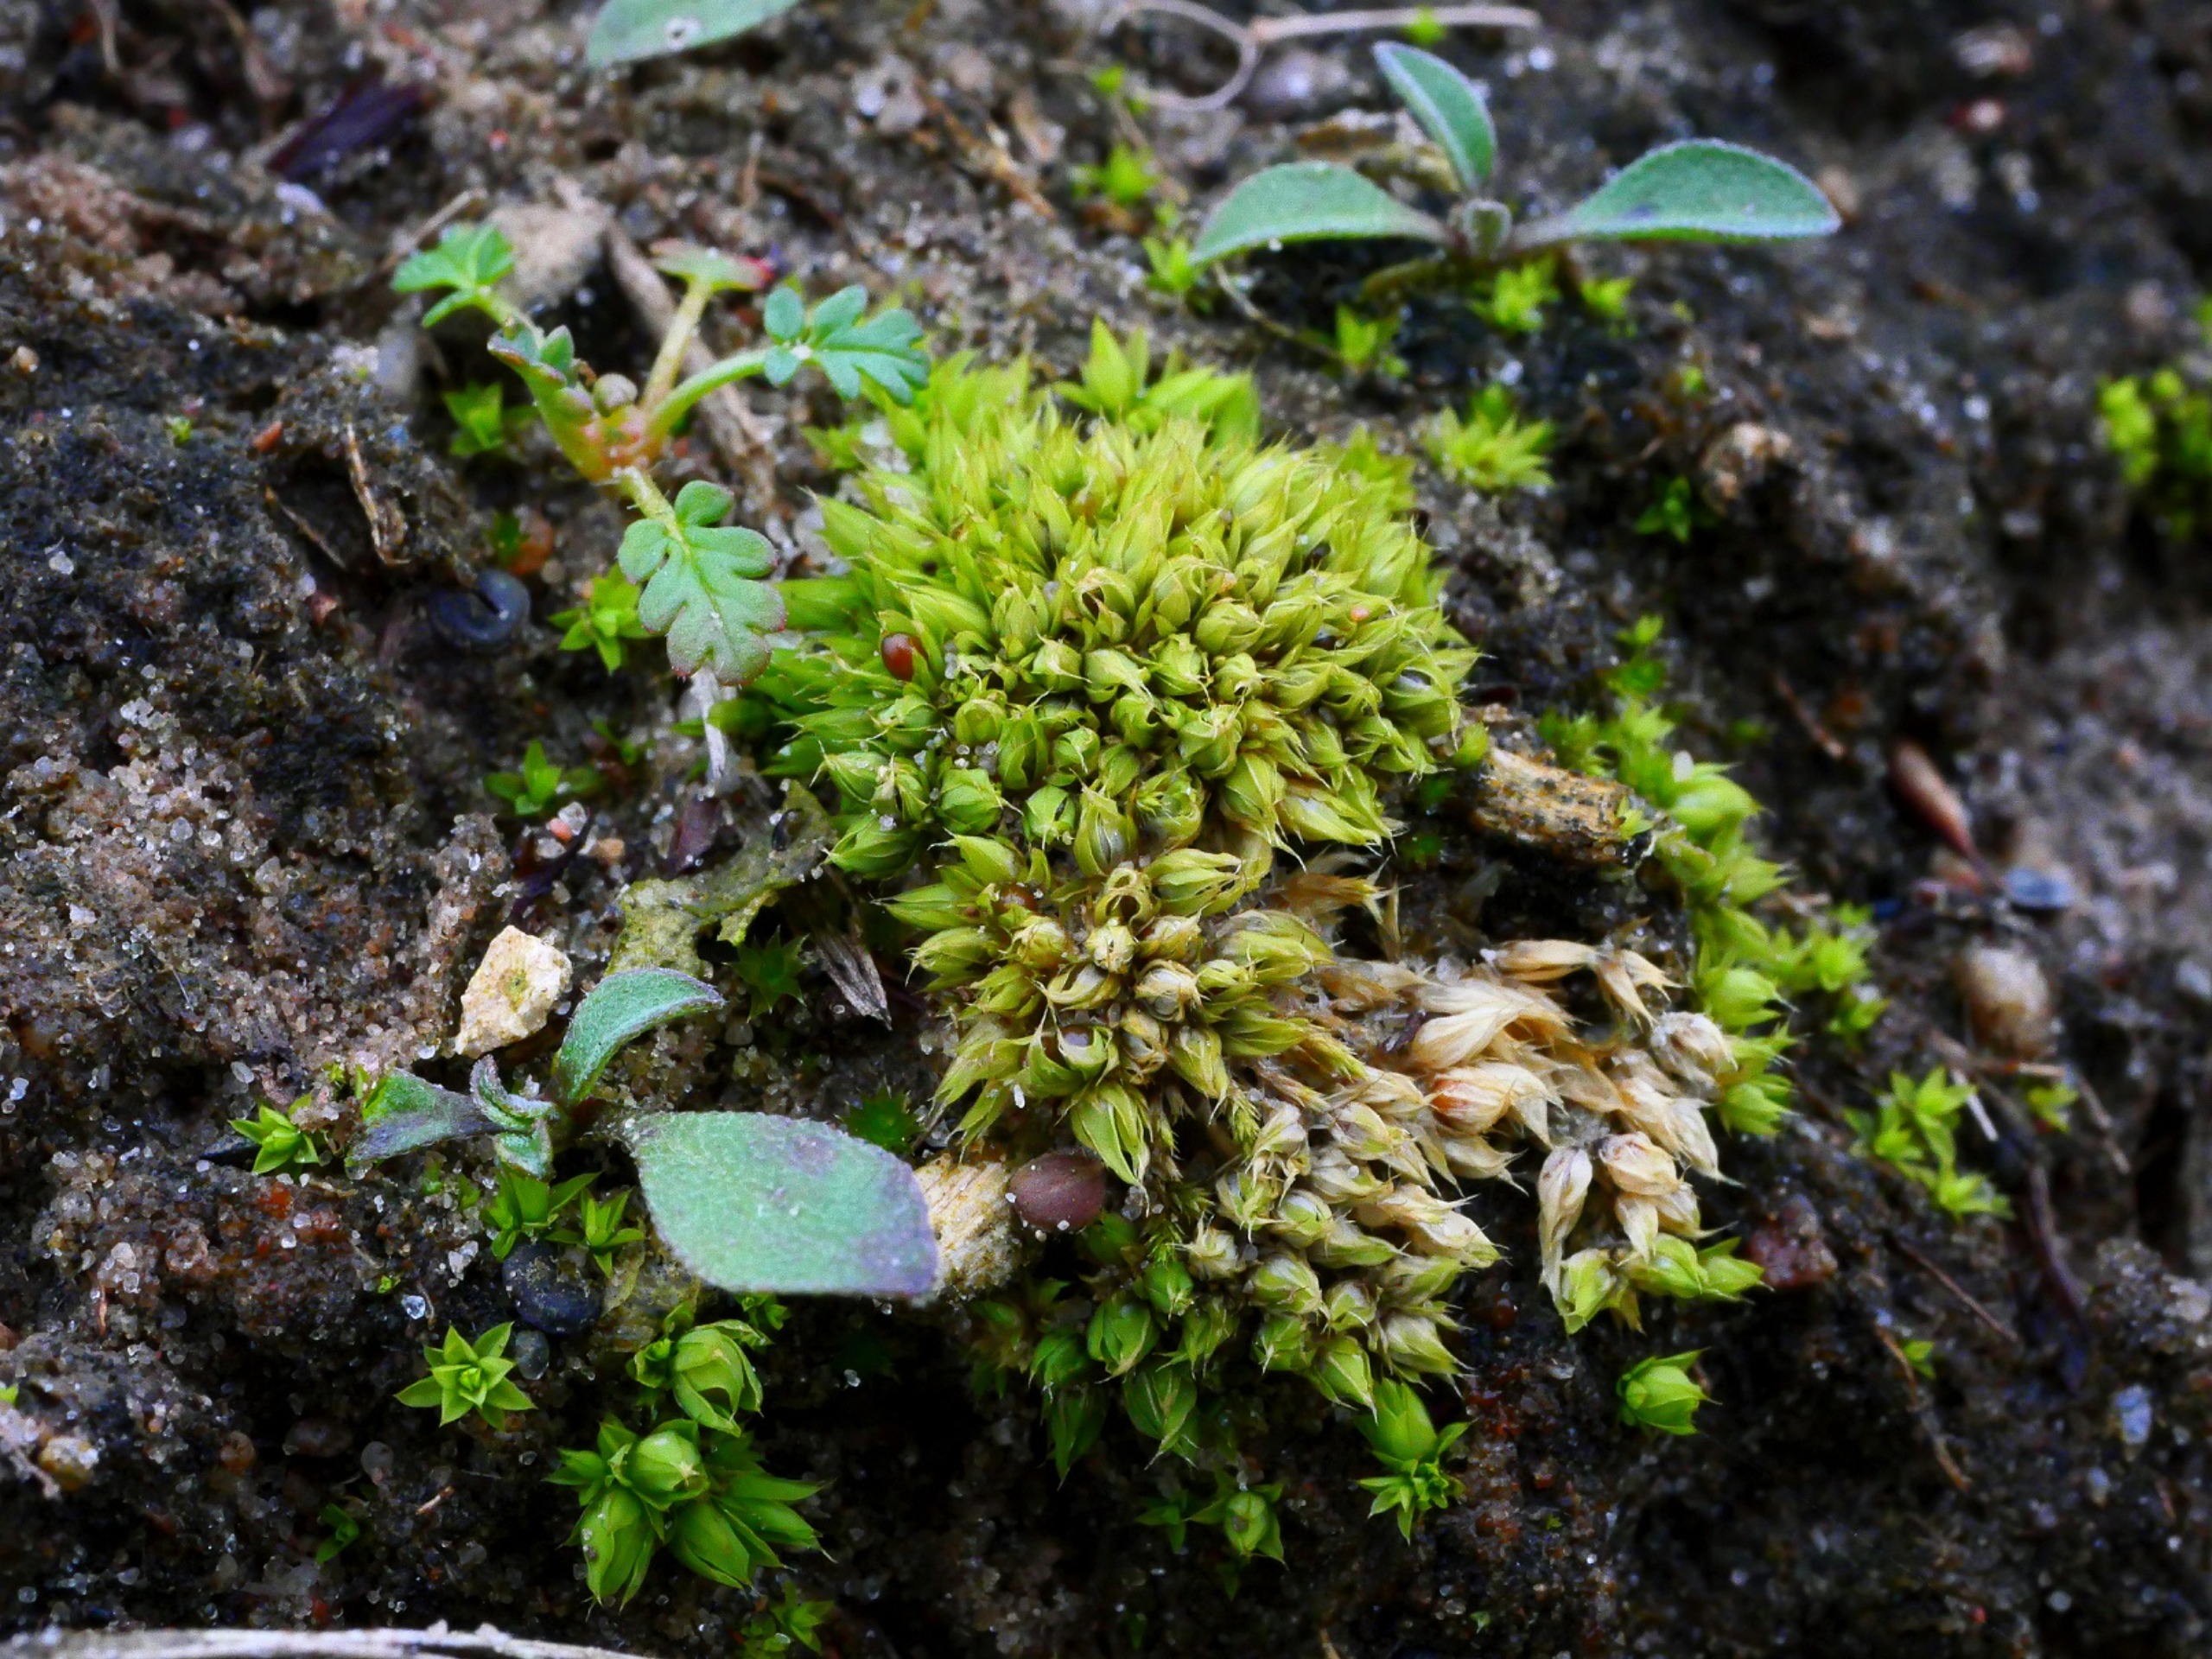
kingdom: Plantae
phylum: Bryophyta
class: Bryopsida
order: Pottiales
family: Pottiaceae
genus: Tortula
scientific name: Tortula acaulon
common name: Tilspidset dværgmos
